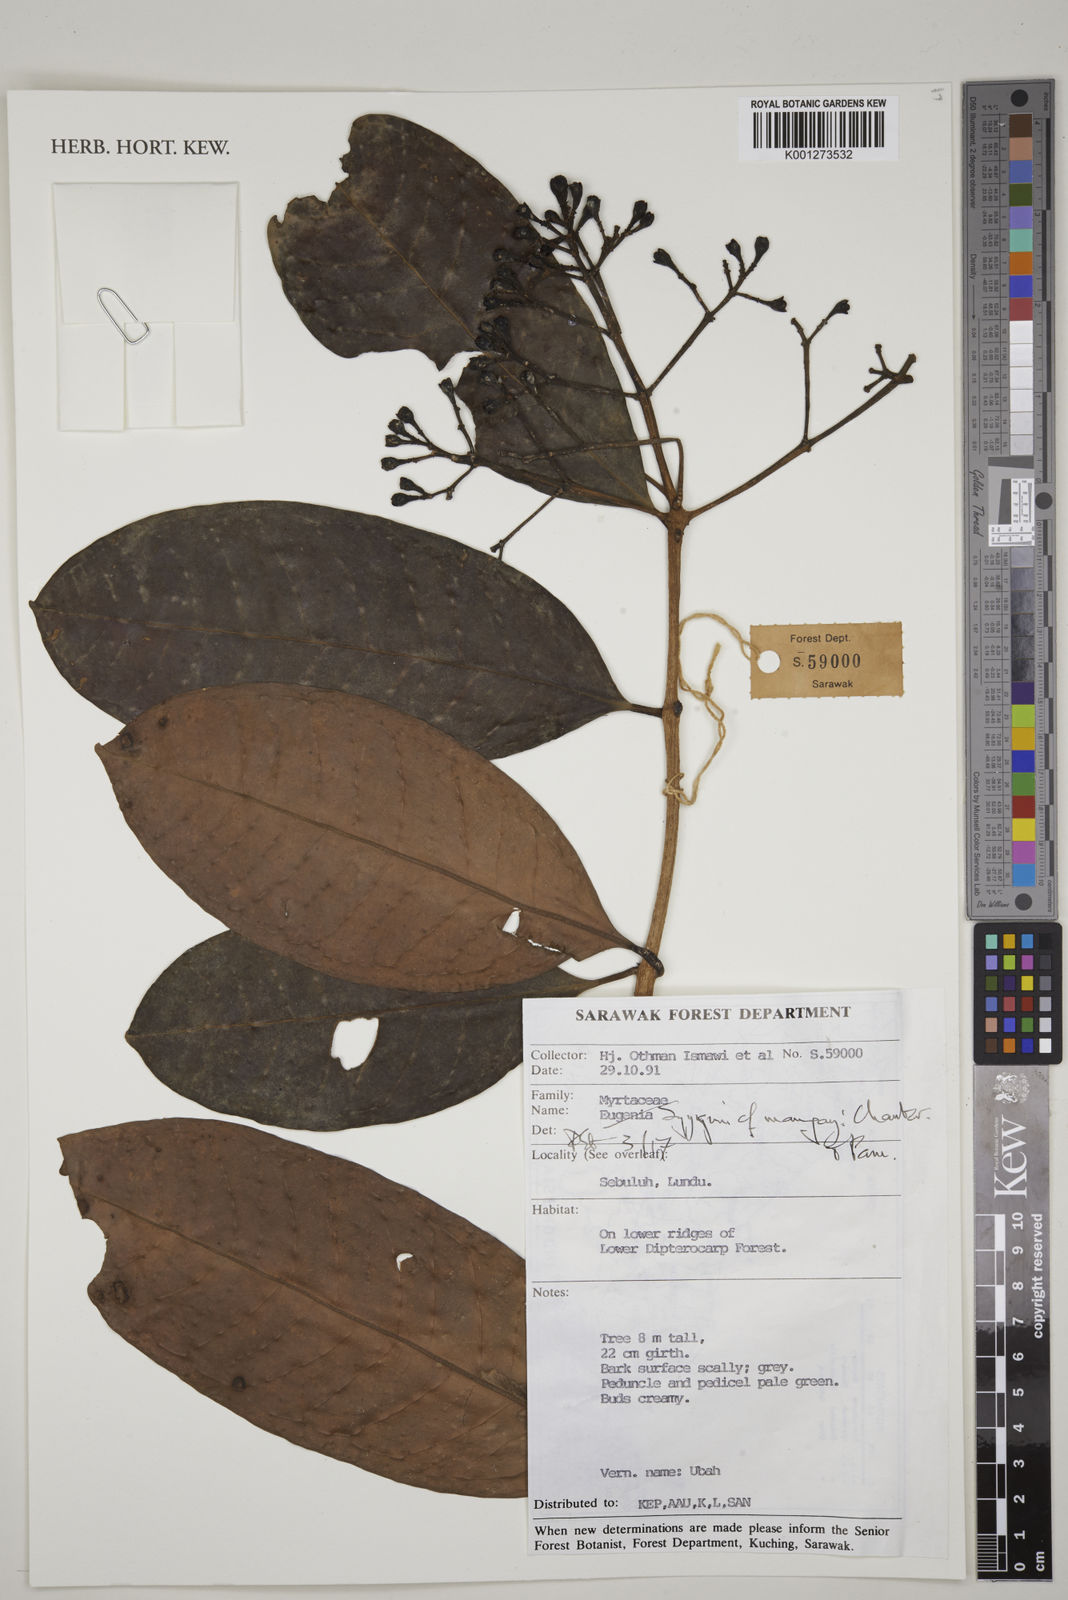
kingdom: Plantae
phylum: Tracheophyta
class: Magnoliopsida
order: Myrtales
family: Myrtaceae
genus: Syzygium
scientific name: Syzygium maingayi
